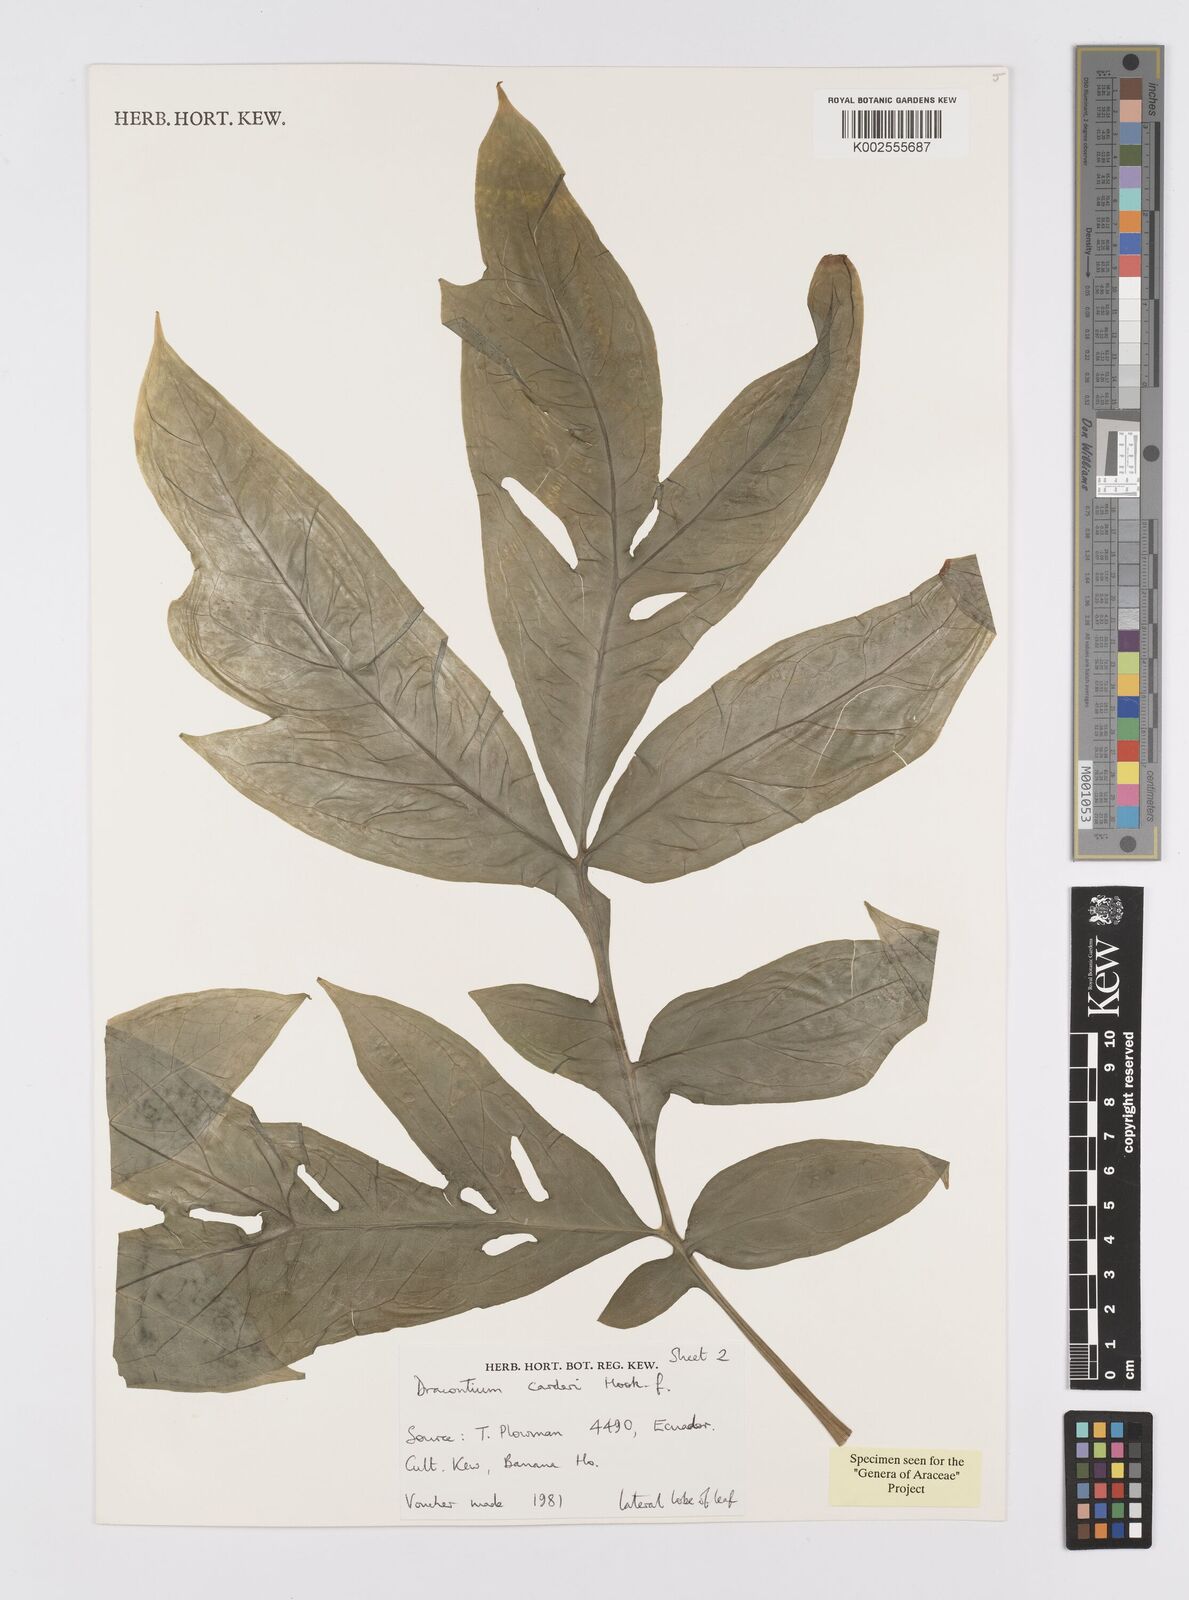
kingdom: Plantae
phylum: Tracheophyta
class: Liliopsida
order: Alismatales
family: Araceae
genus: Dracontium
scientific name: Dracontium spruceanum
